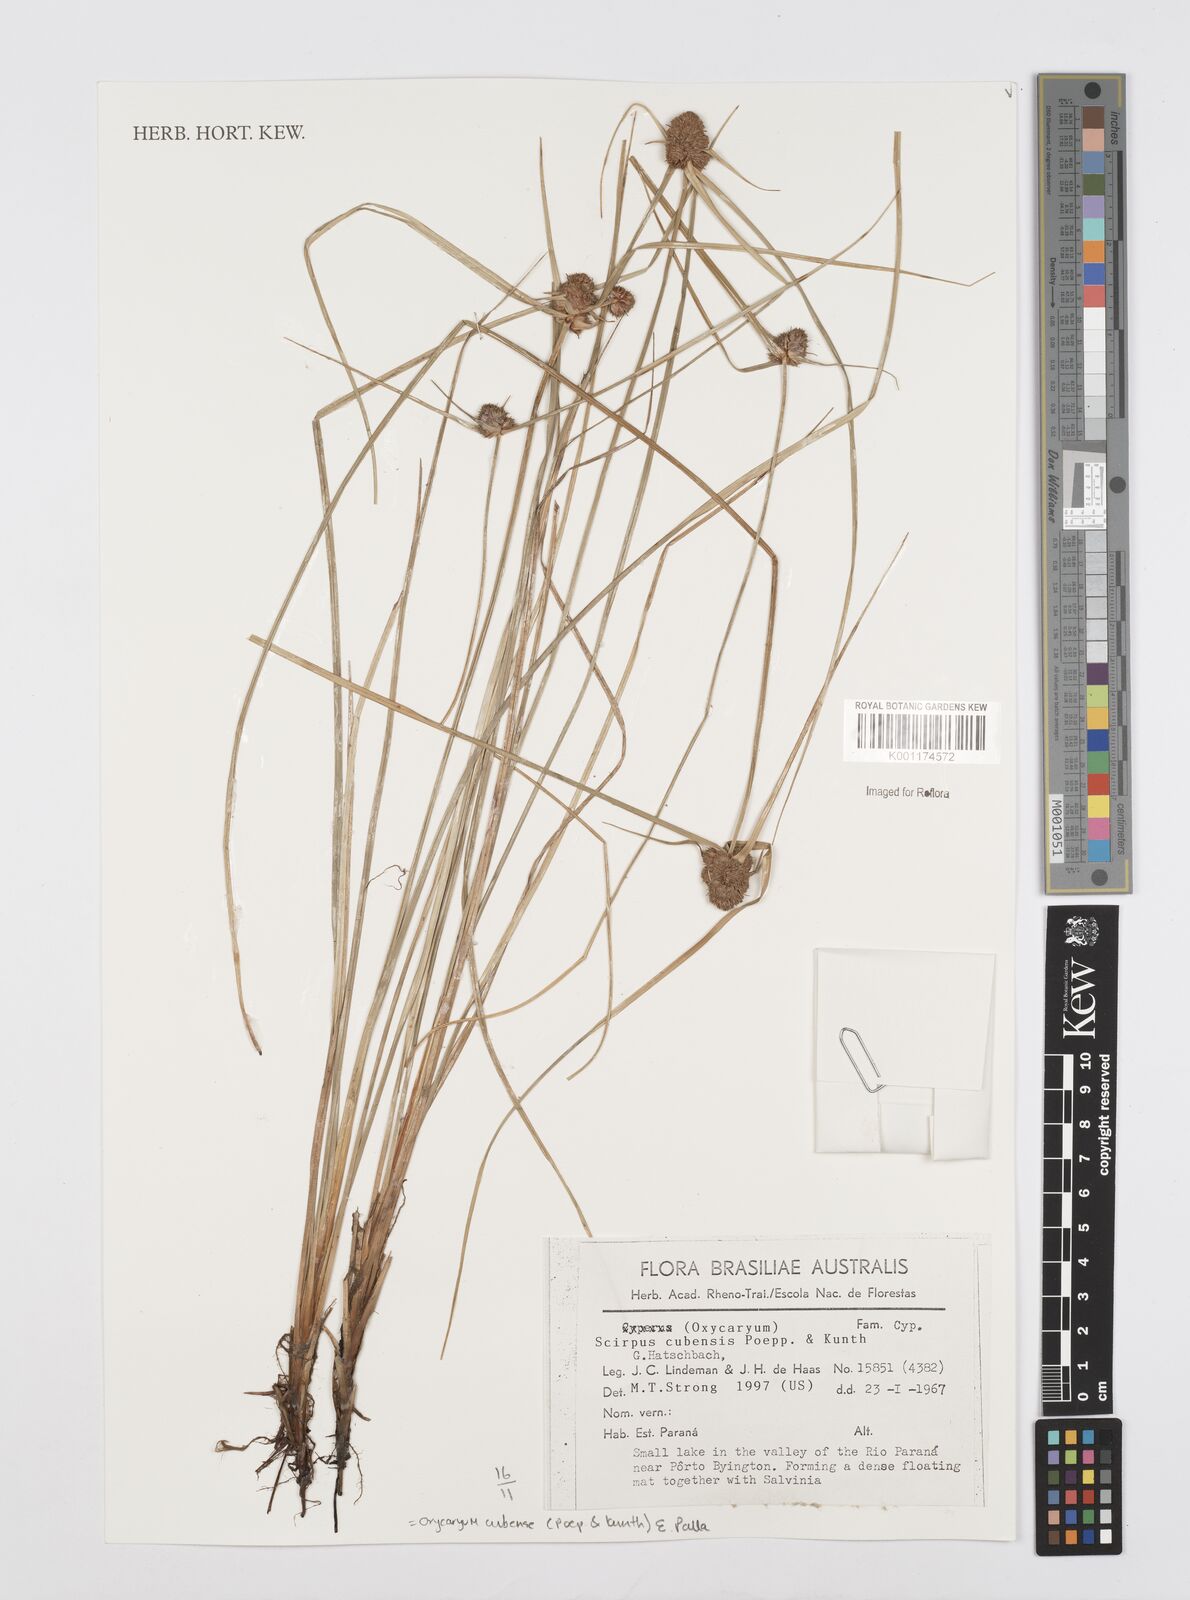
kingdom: Plantae
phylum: Tracheophyta
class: Liliopsida
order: Poales
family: Cyperaceae
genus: Cyperus
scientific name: Cyperus elegans
